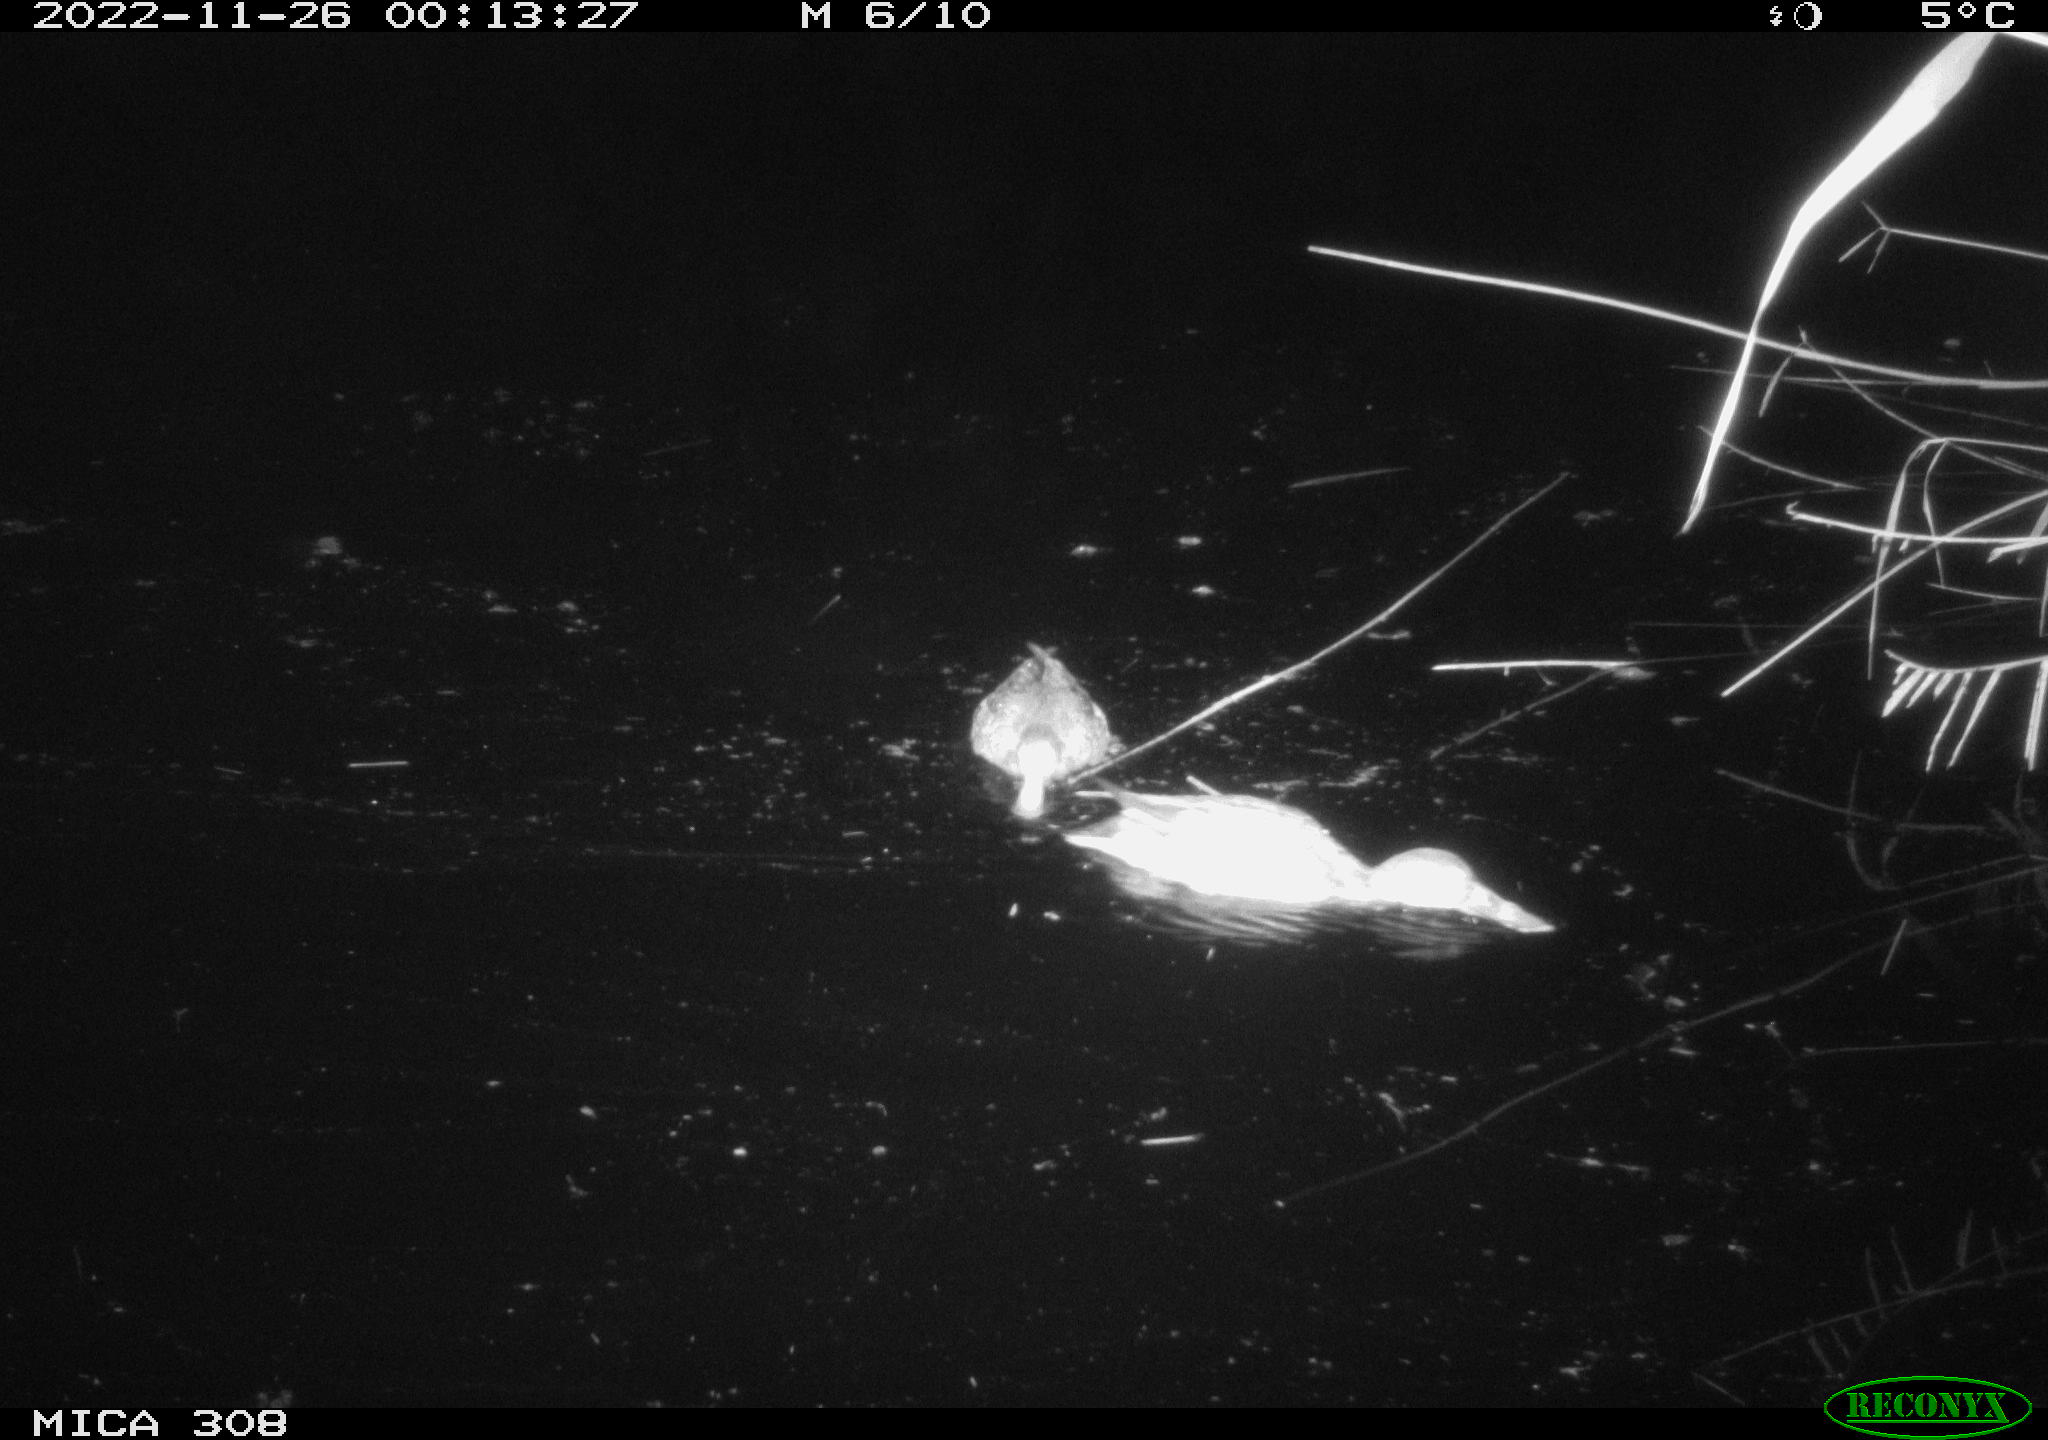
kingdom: Animalia
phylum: Chordata
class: Aves
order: Anseriformes
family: Anatidae
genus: Anas
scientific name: Anas
